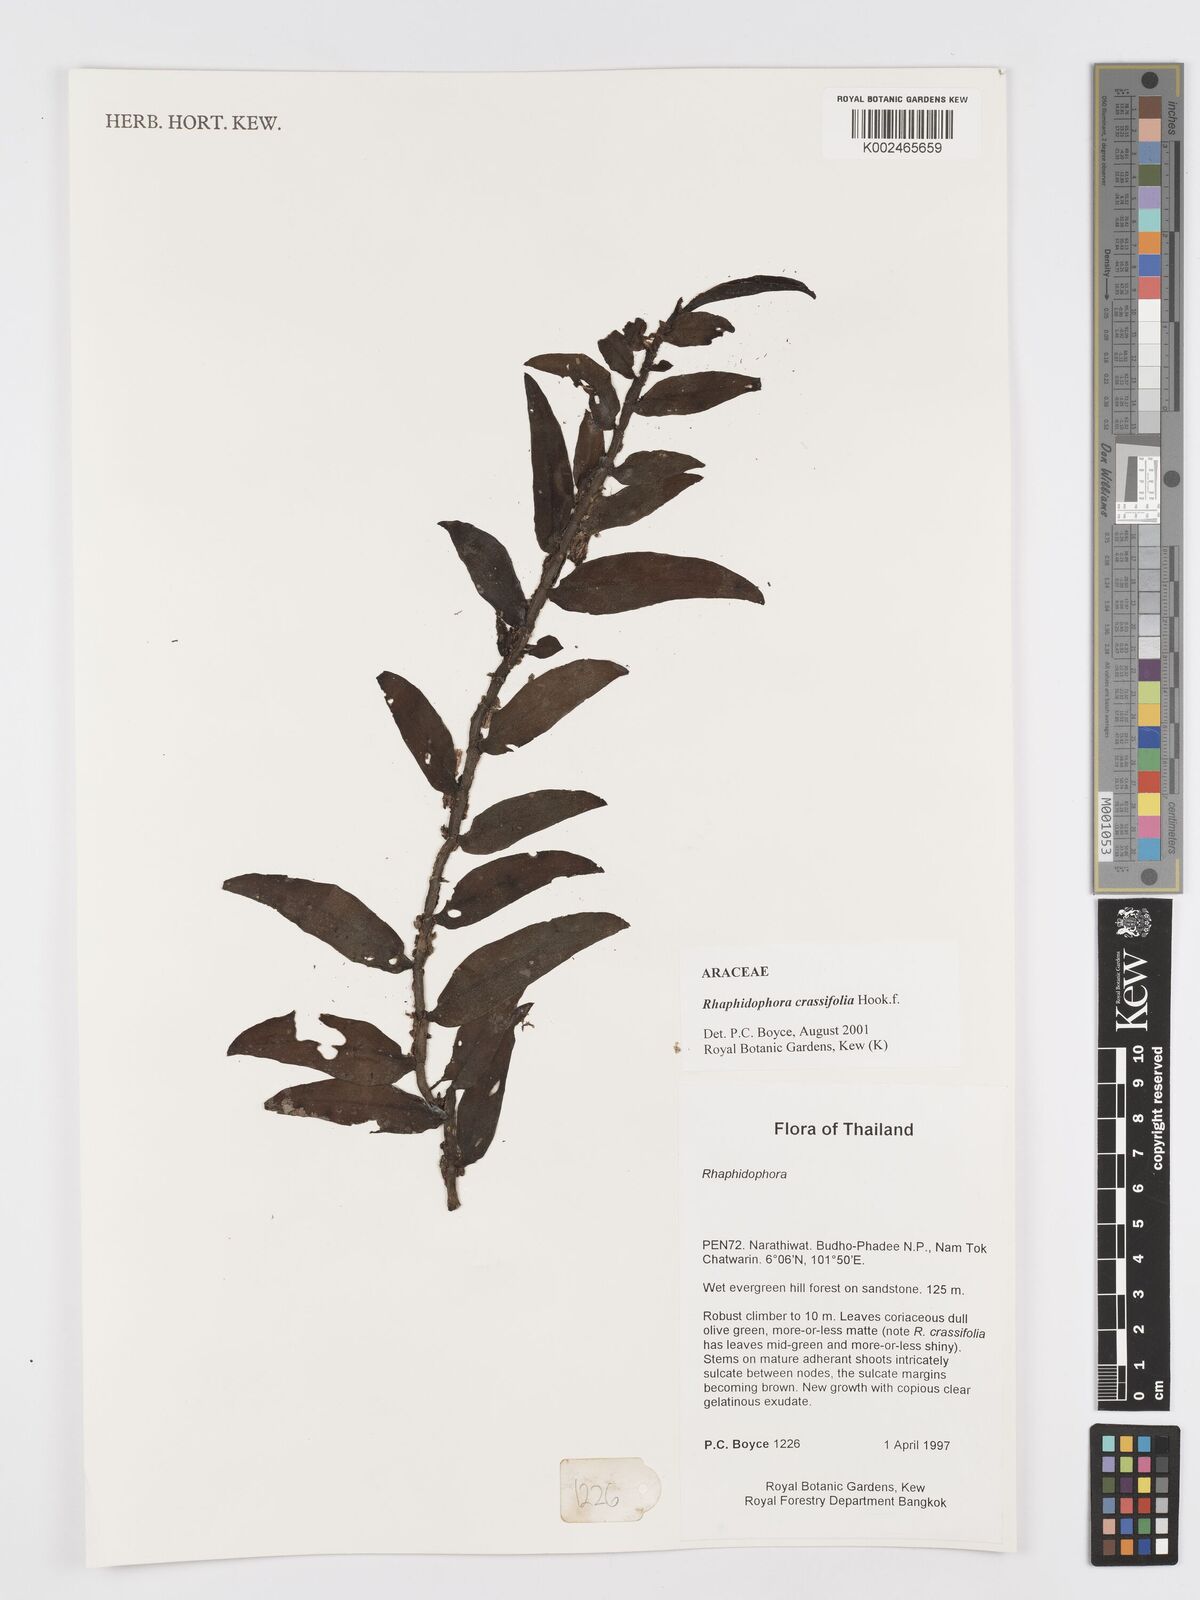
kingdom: Plantae
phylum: Tracheophyta
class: Liliopsida
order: Alismatales
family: Araceae
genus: Rhaphidophora
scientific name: Rhaphidophora crassifolia
